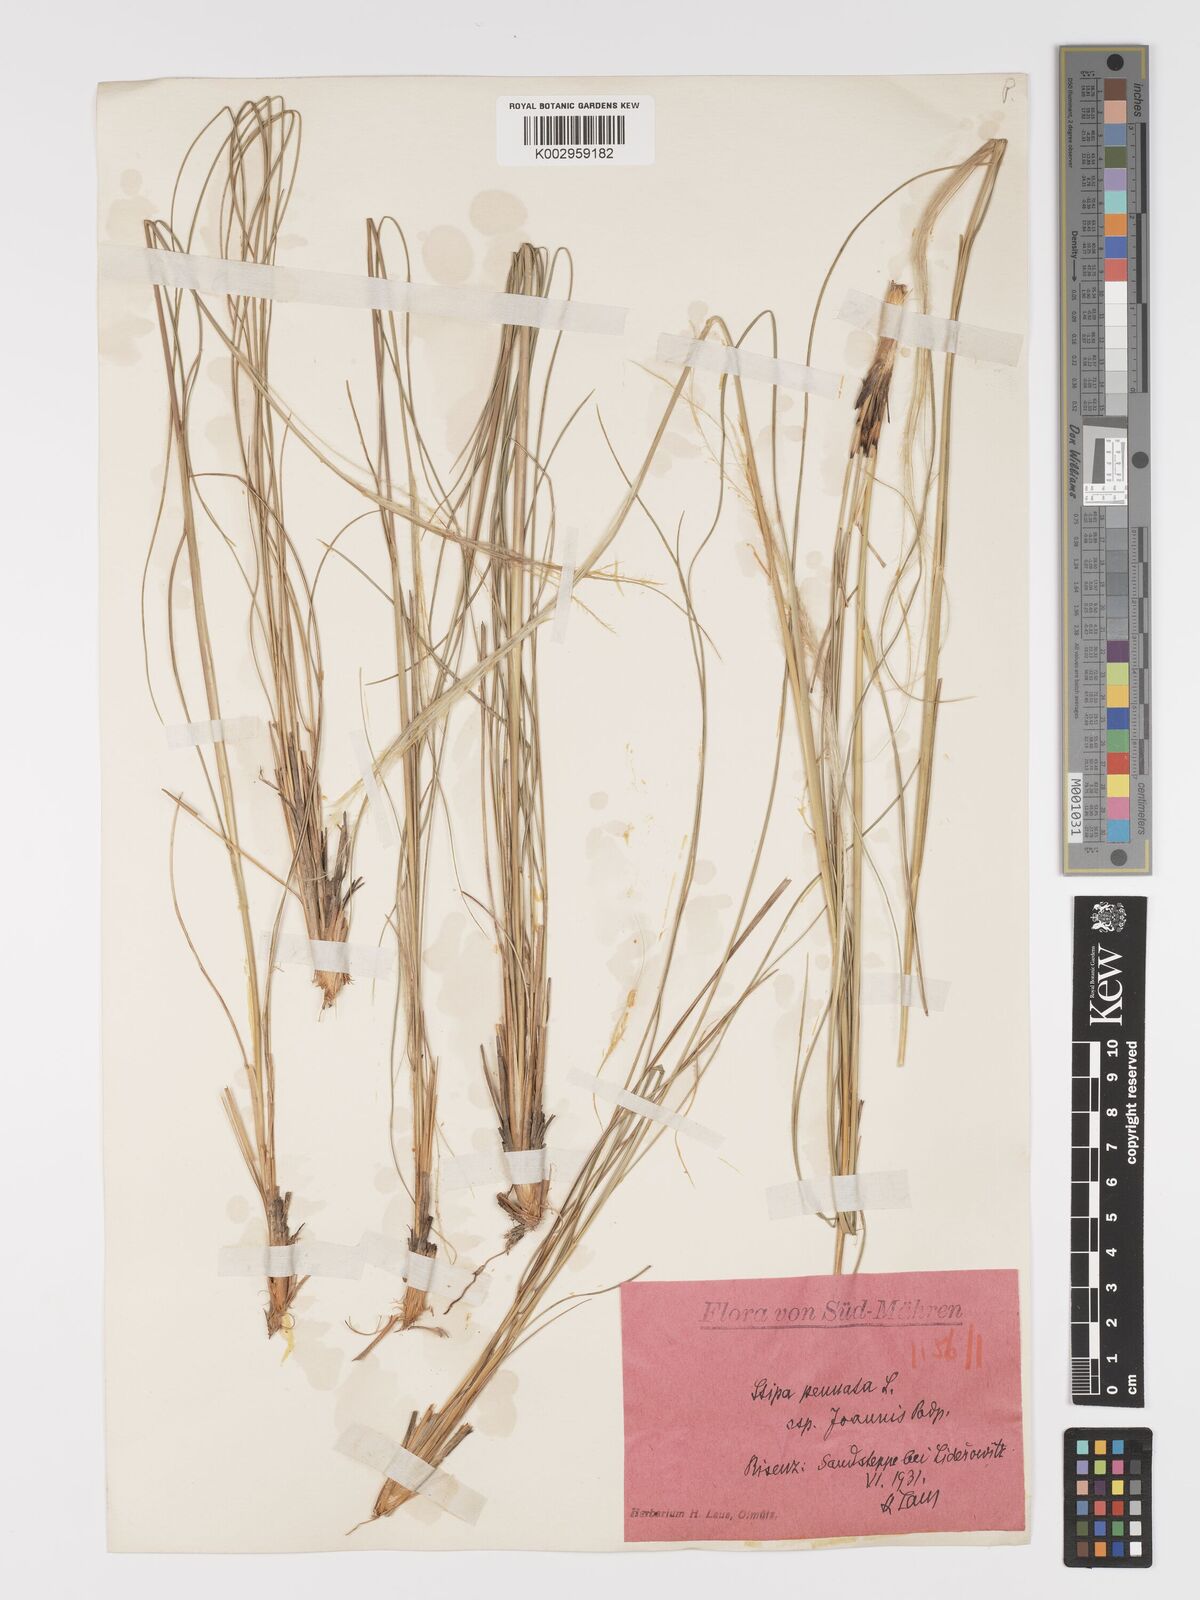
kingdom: Plantae
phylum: Tracheophyta
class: Liliopsida
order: Poales
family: Poaceae
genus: Stipa
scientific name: Stipa pennata
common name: European feather grass
